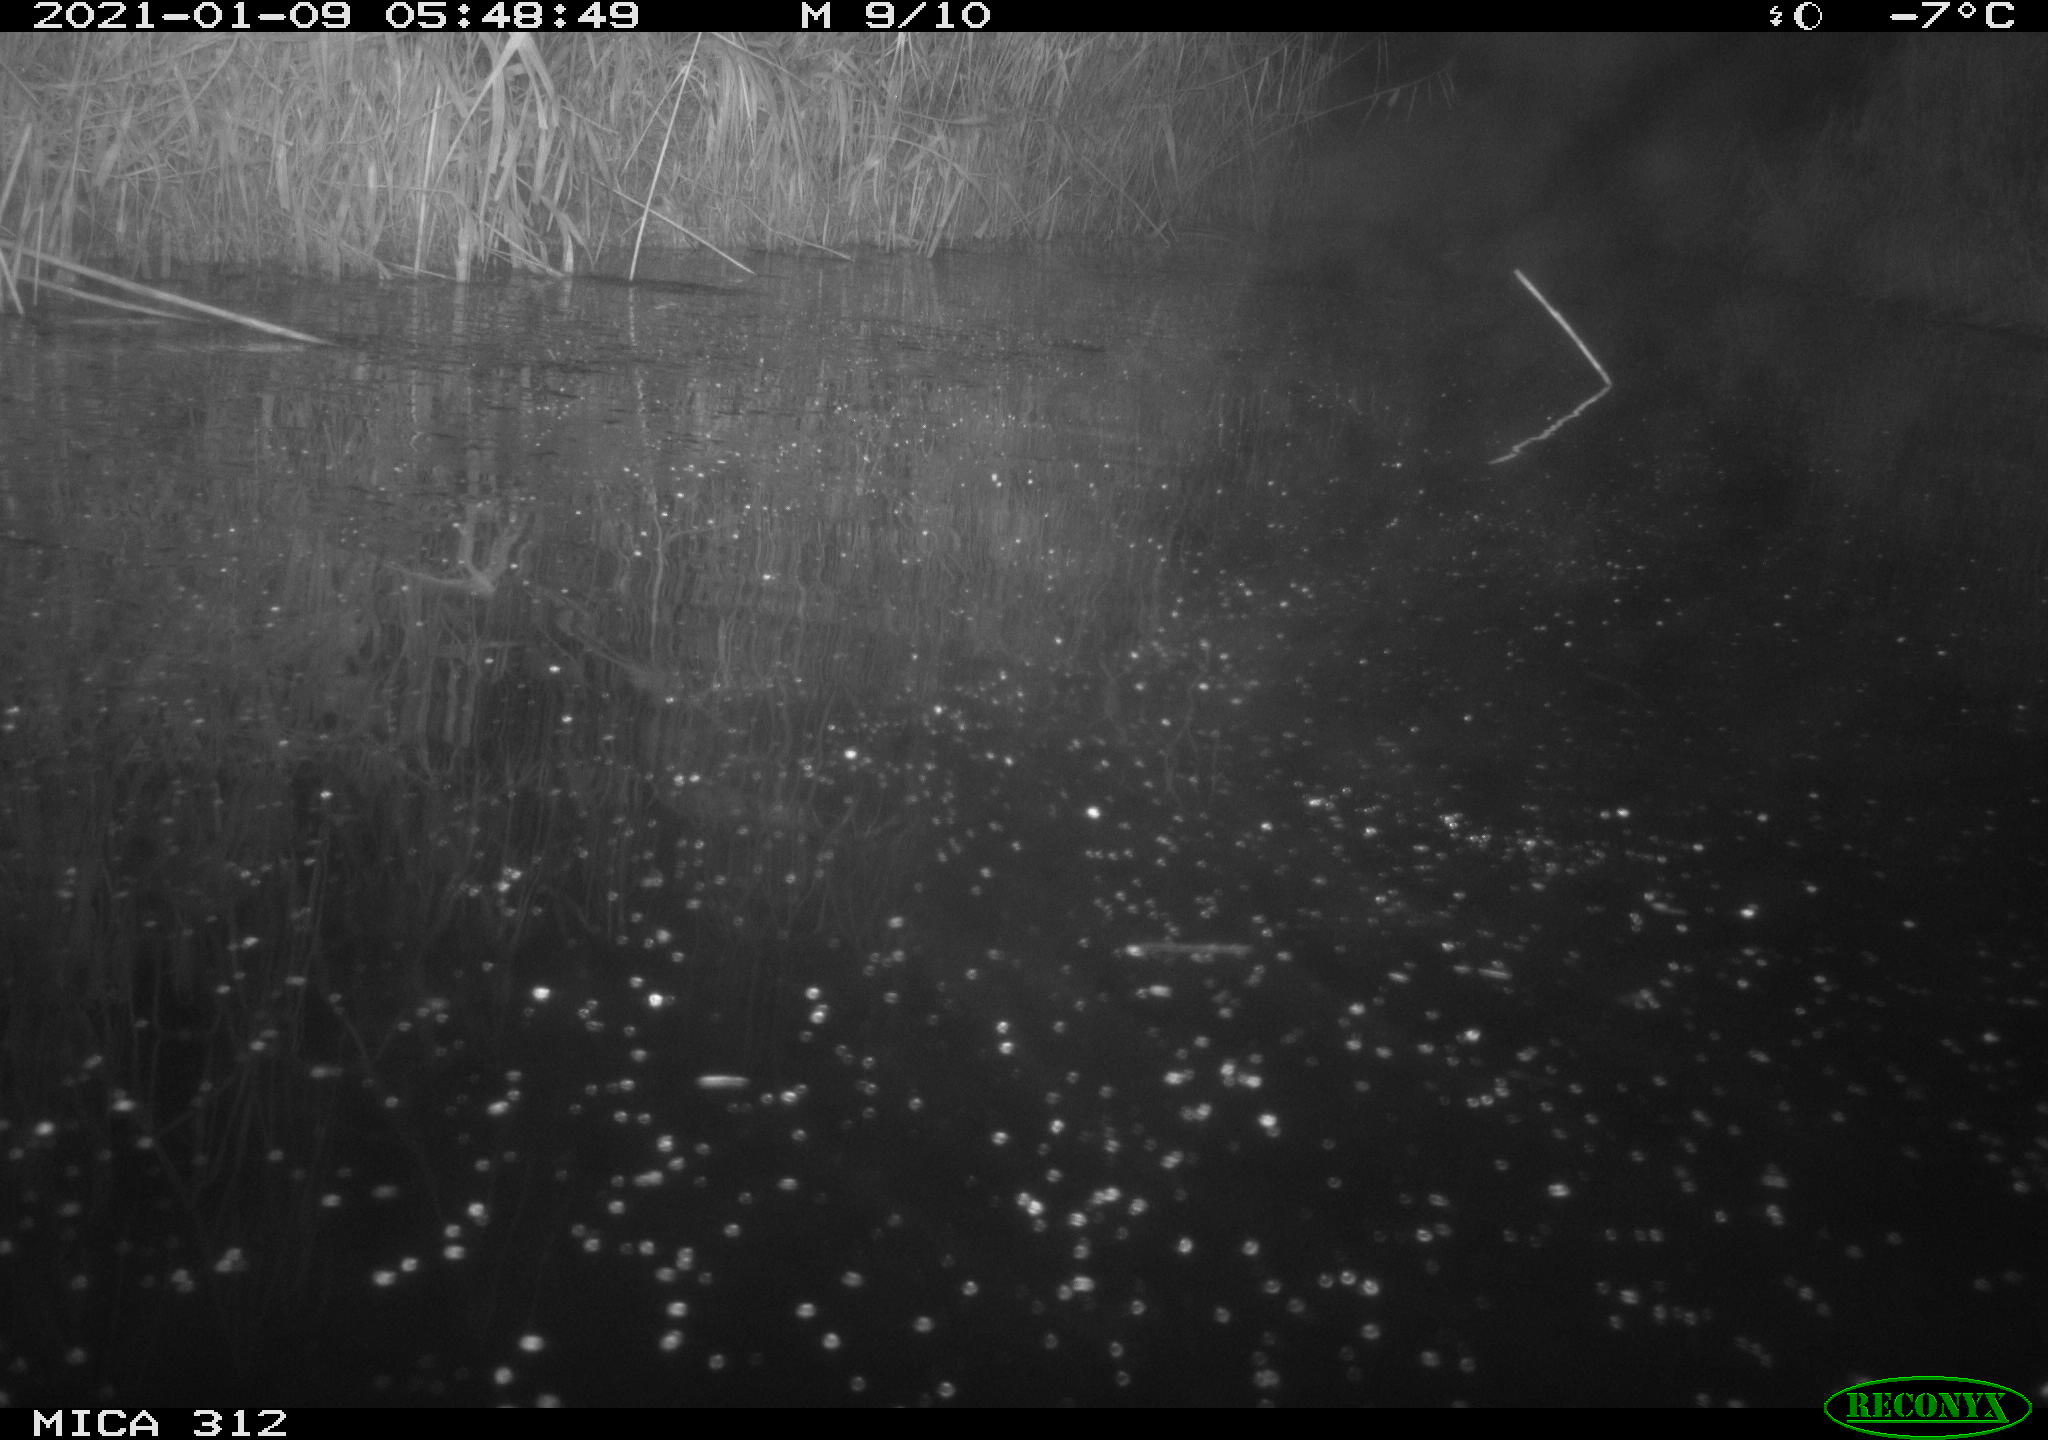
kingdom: Animalia
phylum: Chordata
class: Mammalia
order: Rodentia
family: Muridae
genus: Rattus
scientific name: Rattus norvegicus
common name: Brown rat
